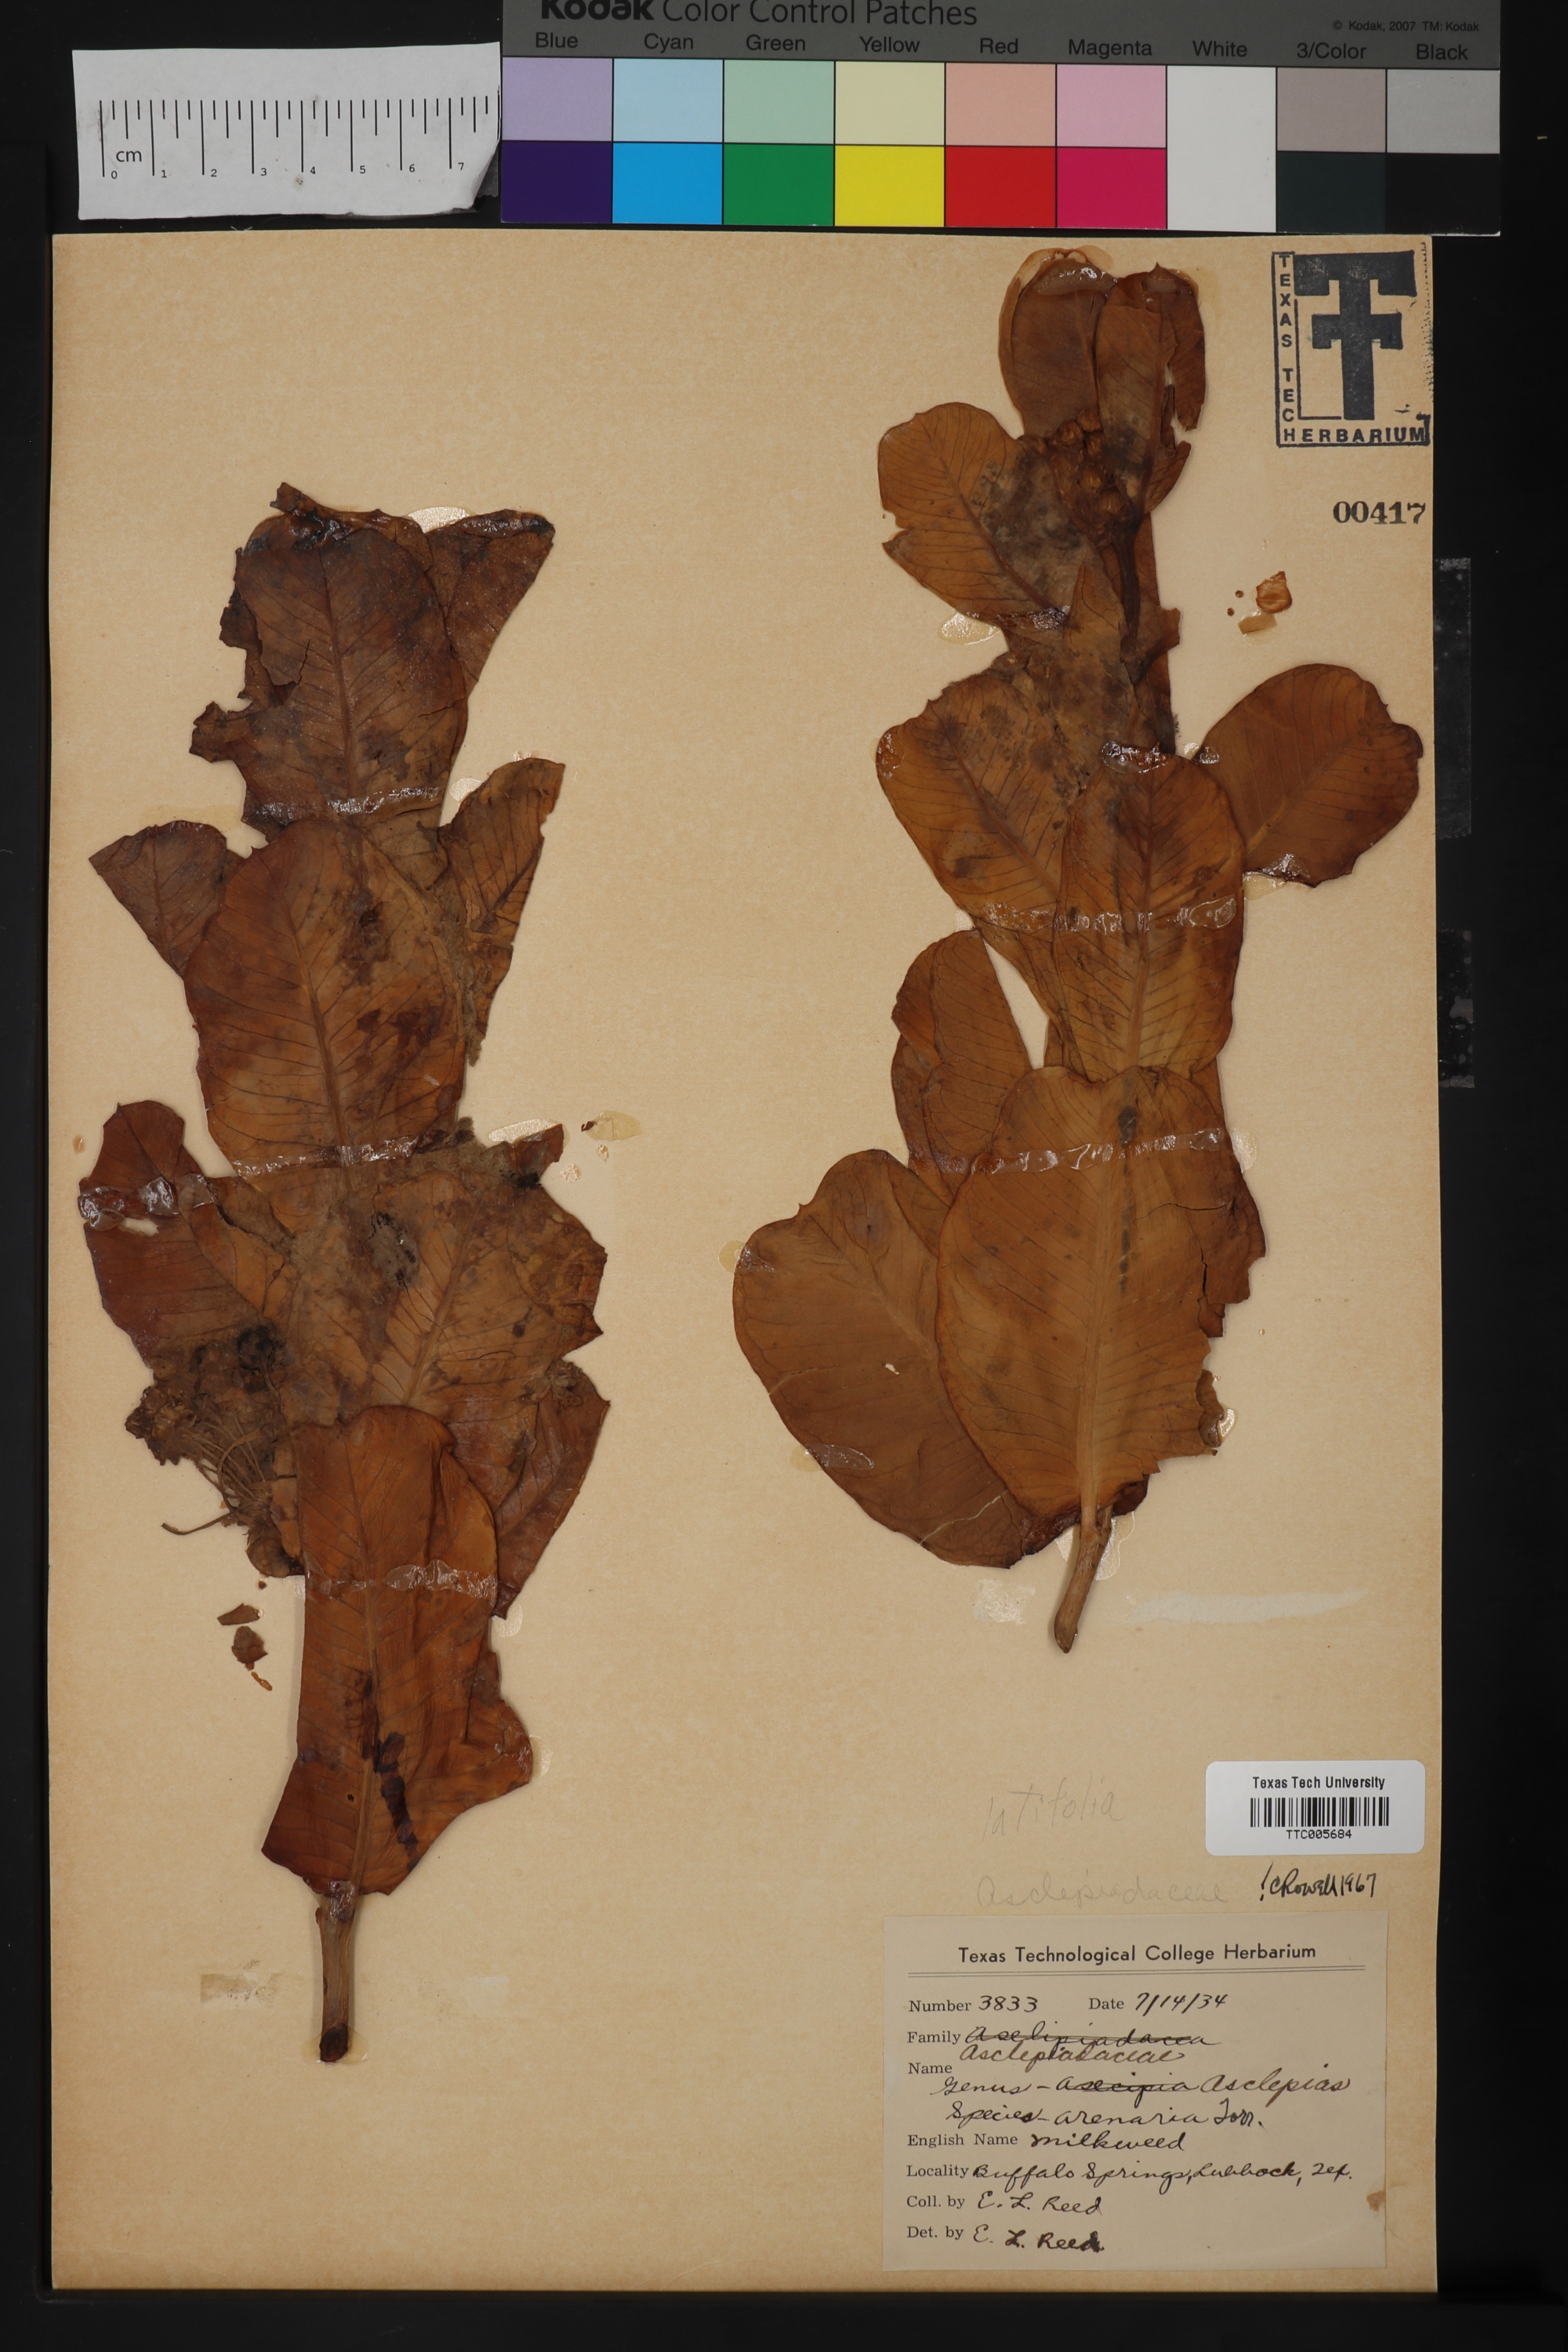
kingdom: Plantae
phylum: Tracheophyta
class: Magnoliopsida
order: Gentianales
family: Apocynaceae
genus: Asclepias
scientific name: Asclepias latifolia
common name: Broadleaf milkweed
